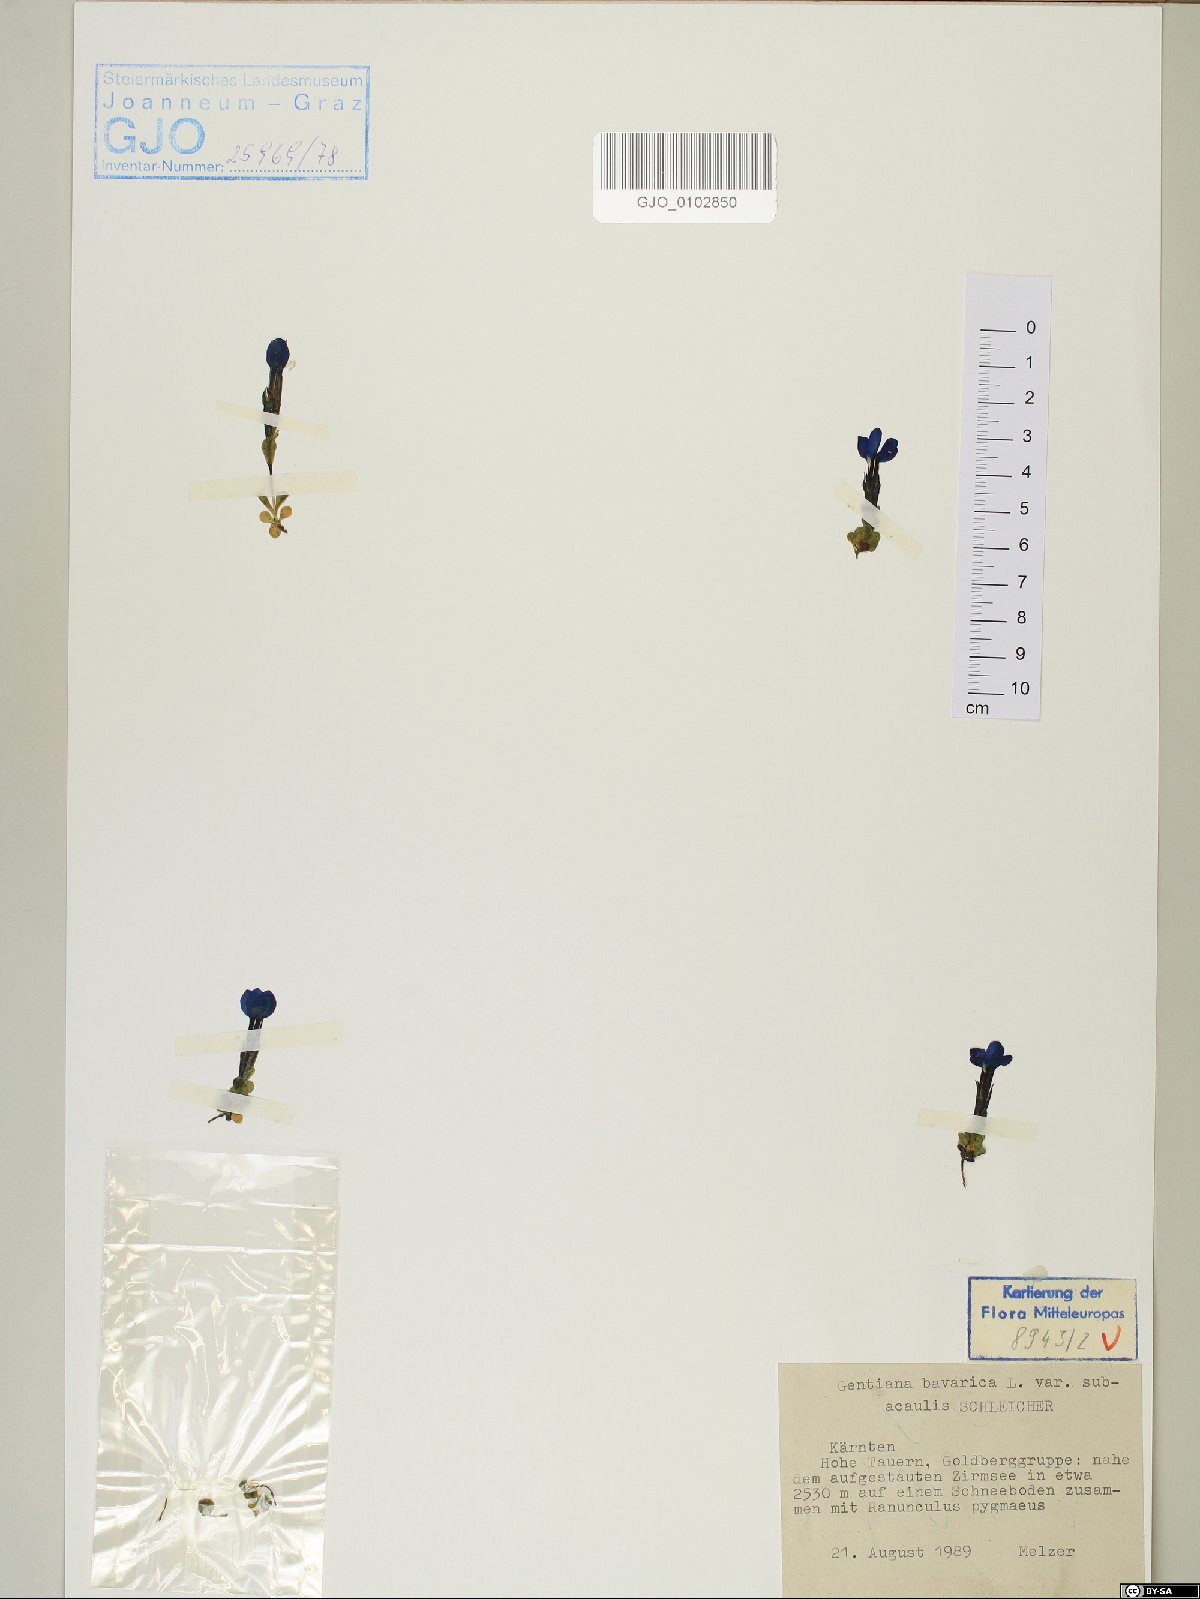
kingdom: Plantae
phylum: Tracheophyta
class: Magnoliopsida
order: Gentianales
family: Gentianaceae
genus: Gentiana
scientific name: Gentiana bavarica
